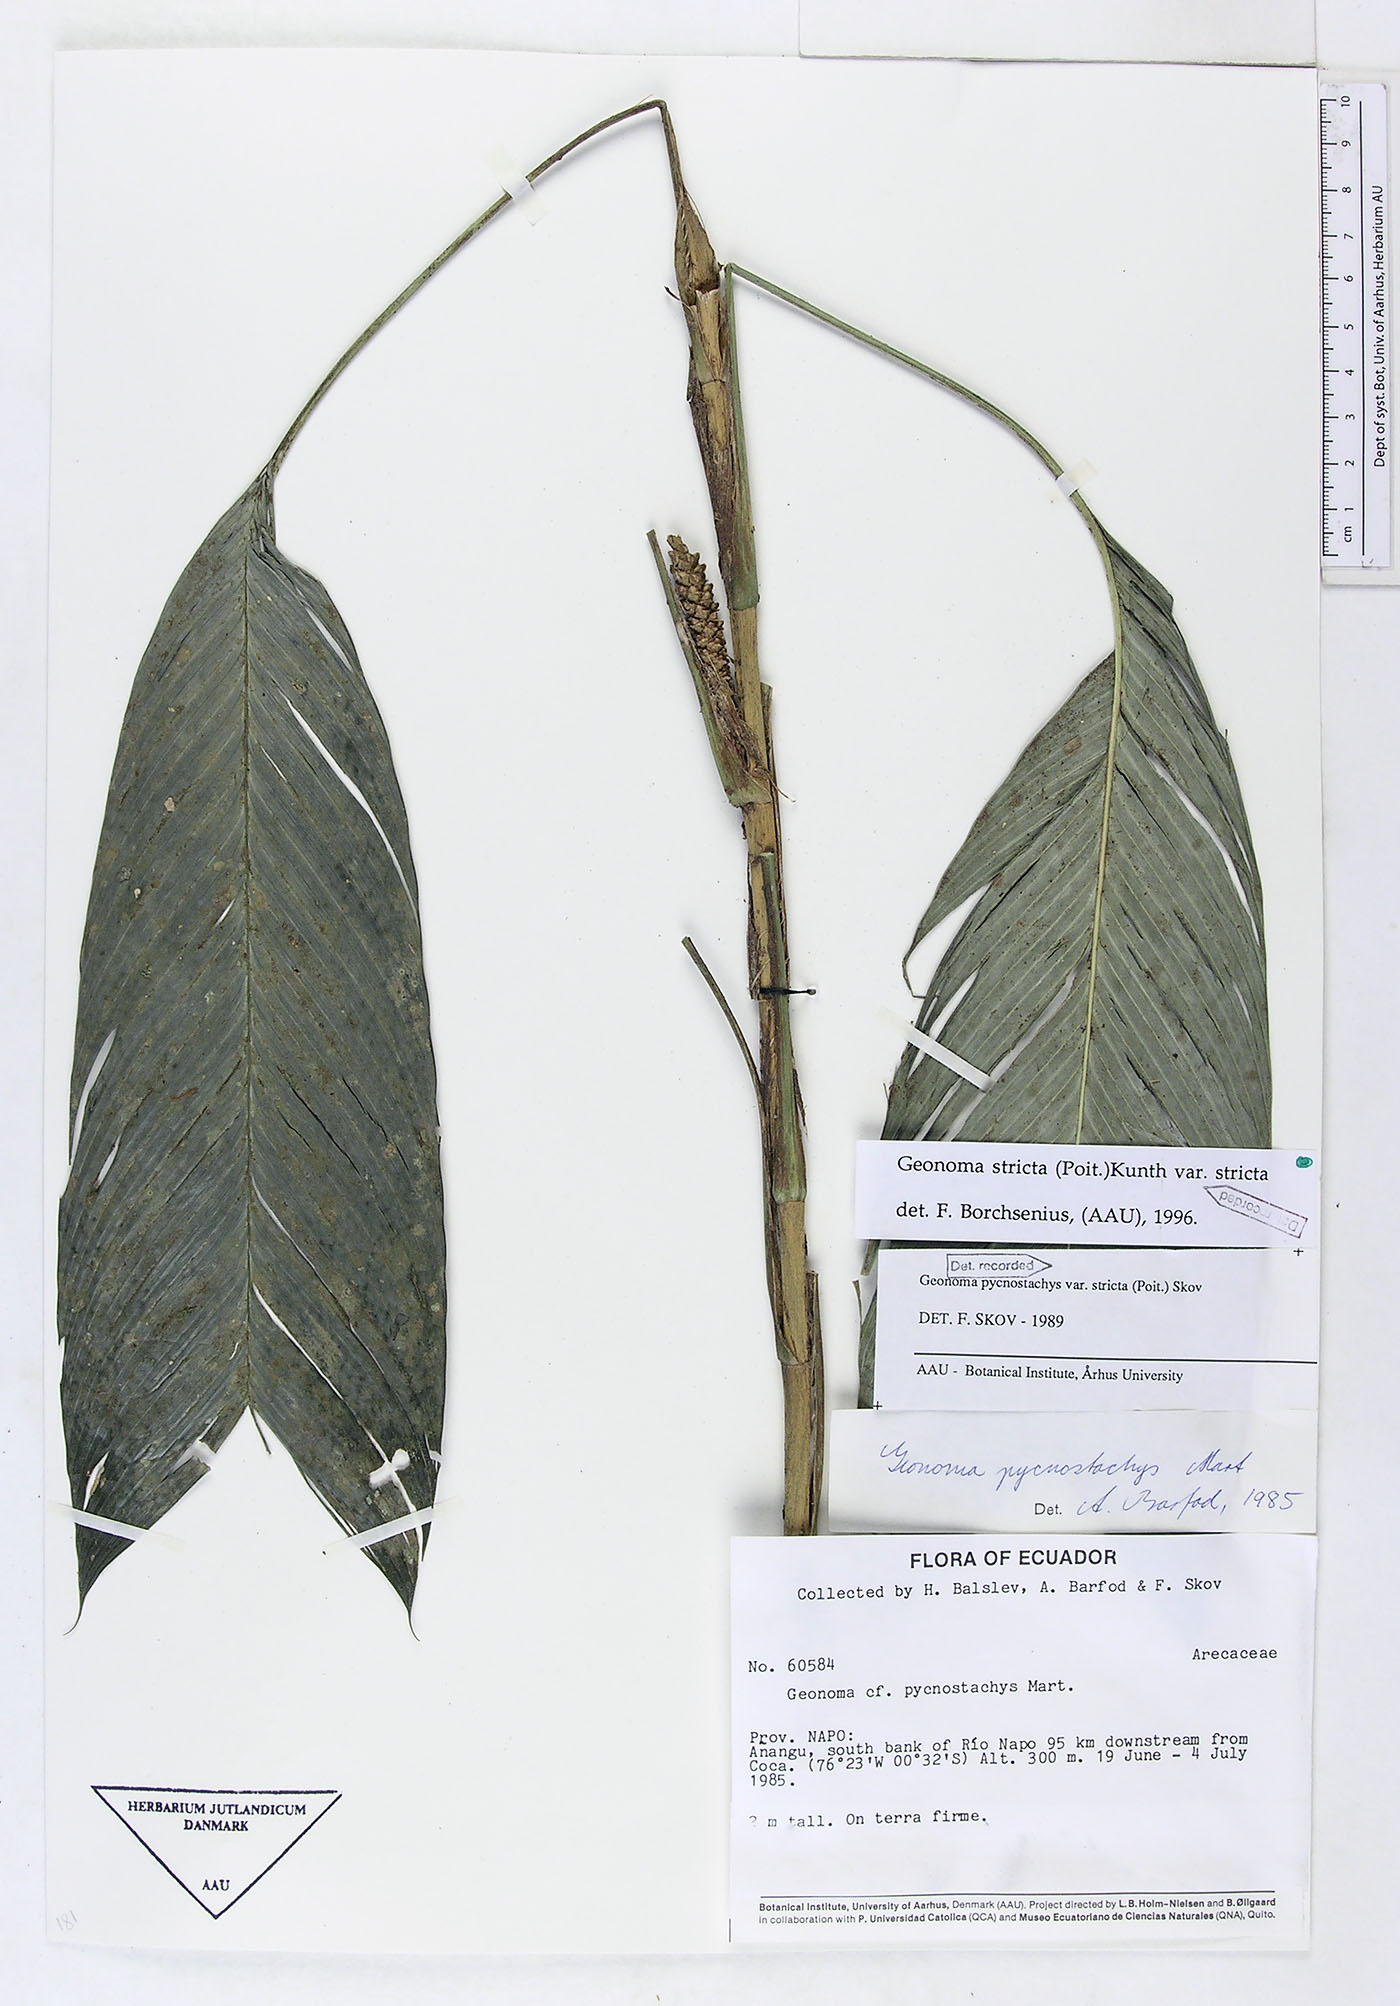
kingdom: Plantae
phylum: Tracheophyta
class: Liliopsida
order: Arecales
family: Arecaceae
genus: Geonoma
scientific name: Geonoma stricta
